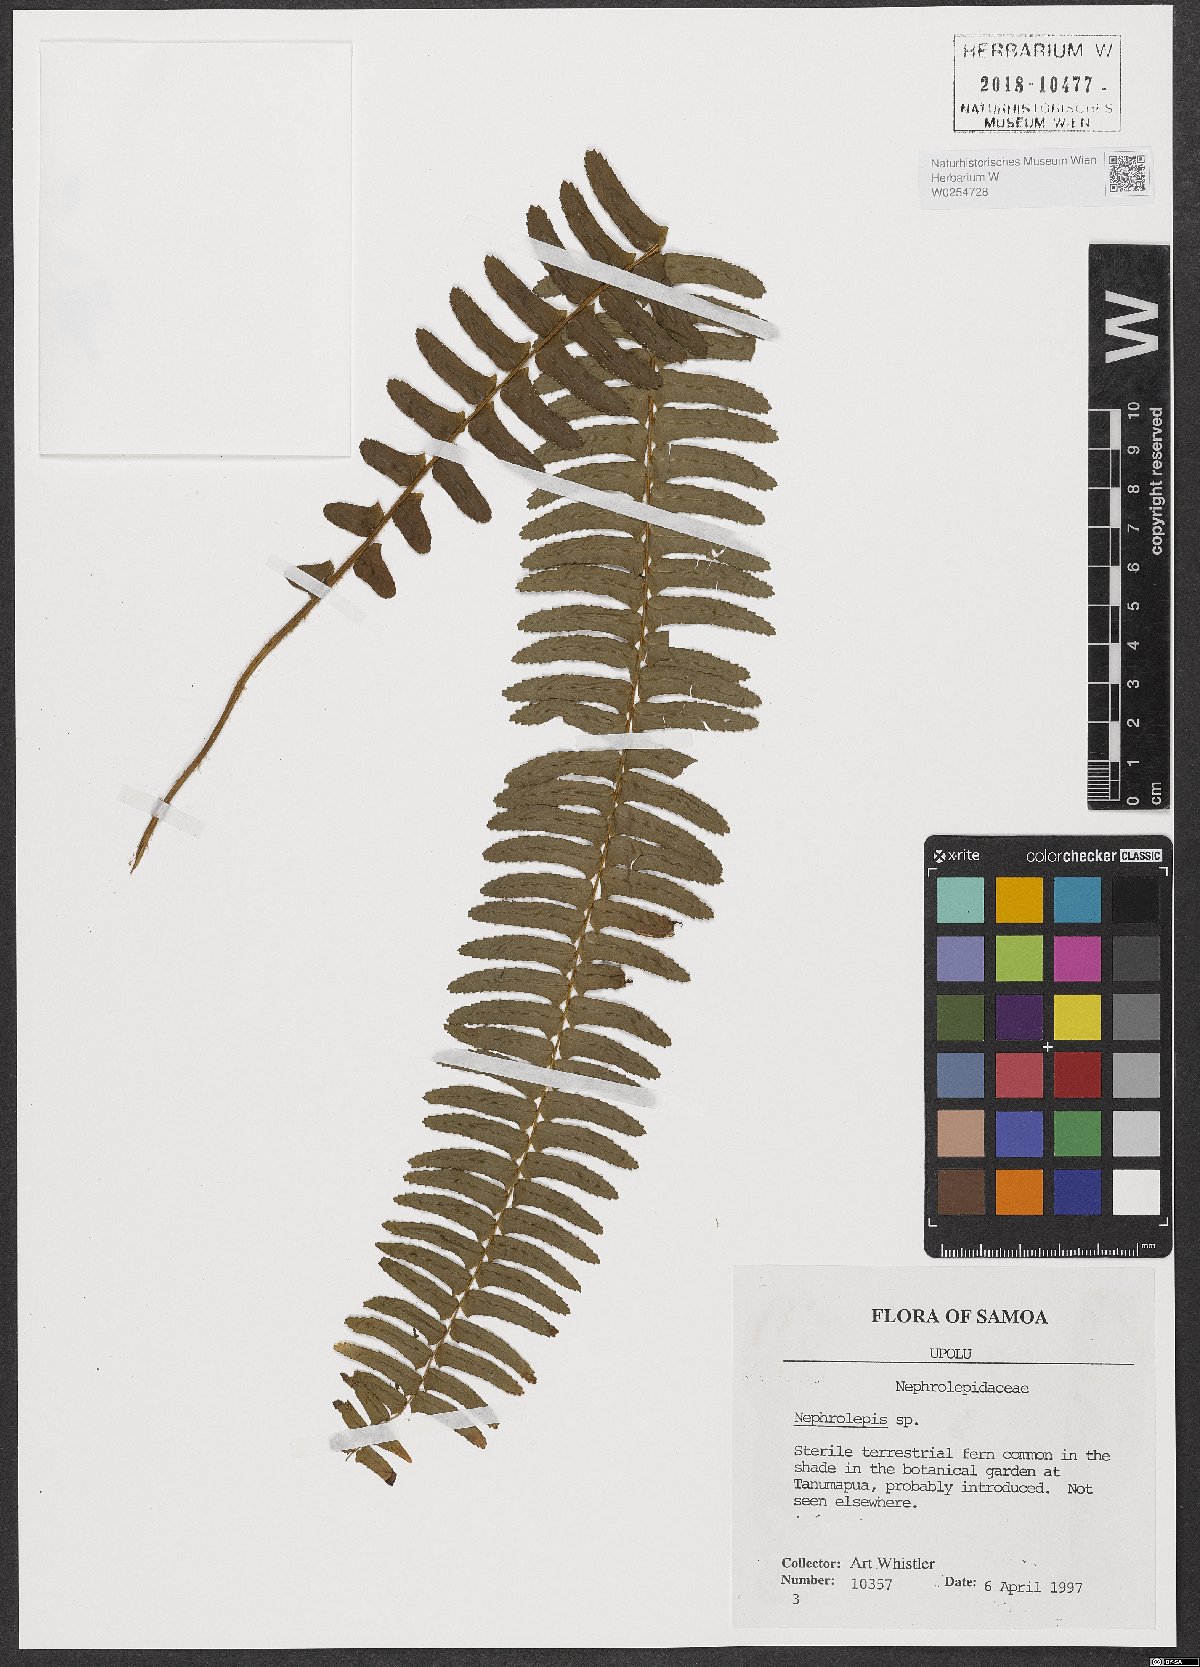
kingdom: Plantae
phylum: Tracheophyta
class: Polypodiopsida
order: Polypodiales
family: Nephrolepidaceae
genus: Nephrolepis
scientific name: Nephrolepis
